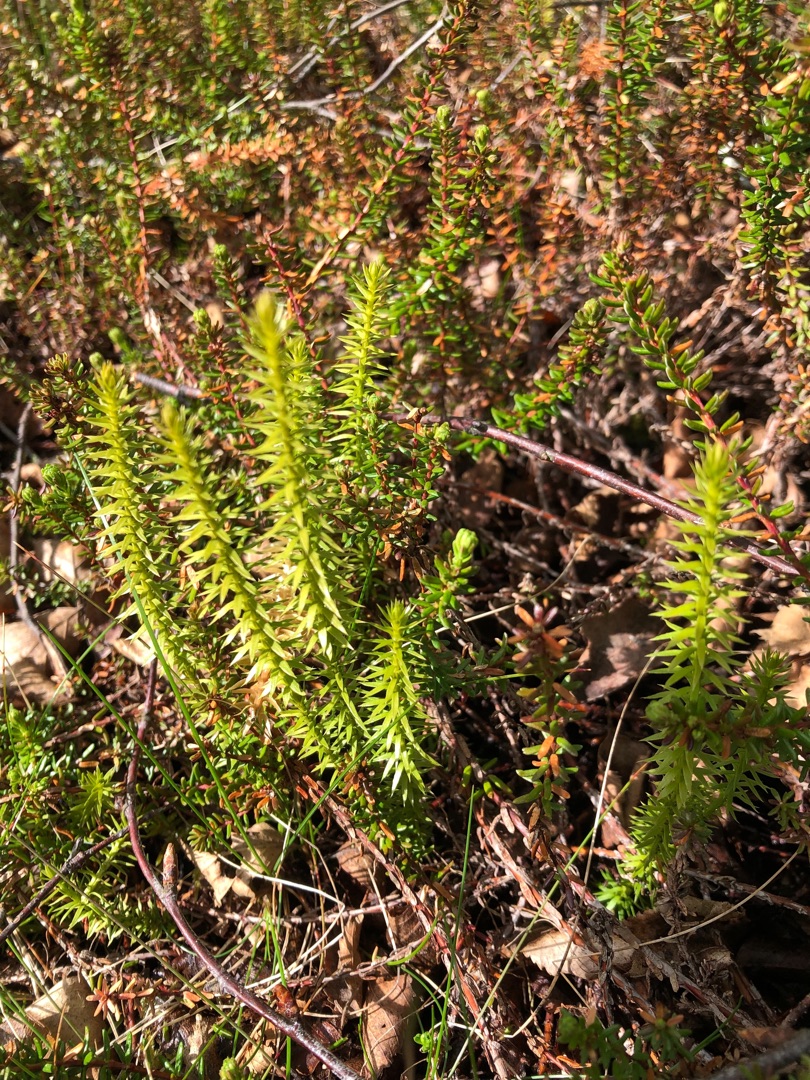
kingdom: Plantae
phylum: Tracheophyta
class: Lycopodiopsida
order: Lycopodiales
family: Lycopodiaceae
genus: Spinulum
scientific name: Spinulum annotinum
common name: Femradet ulvefod
